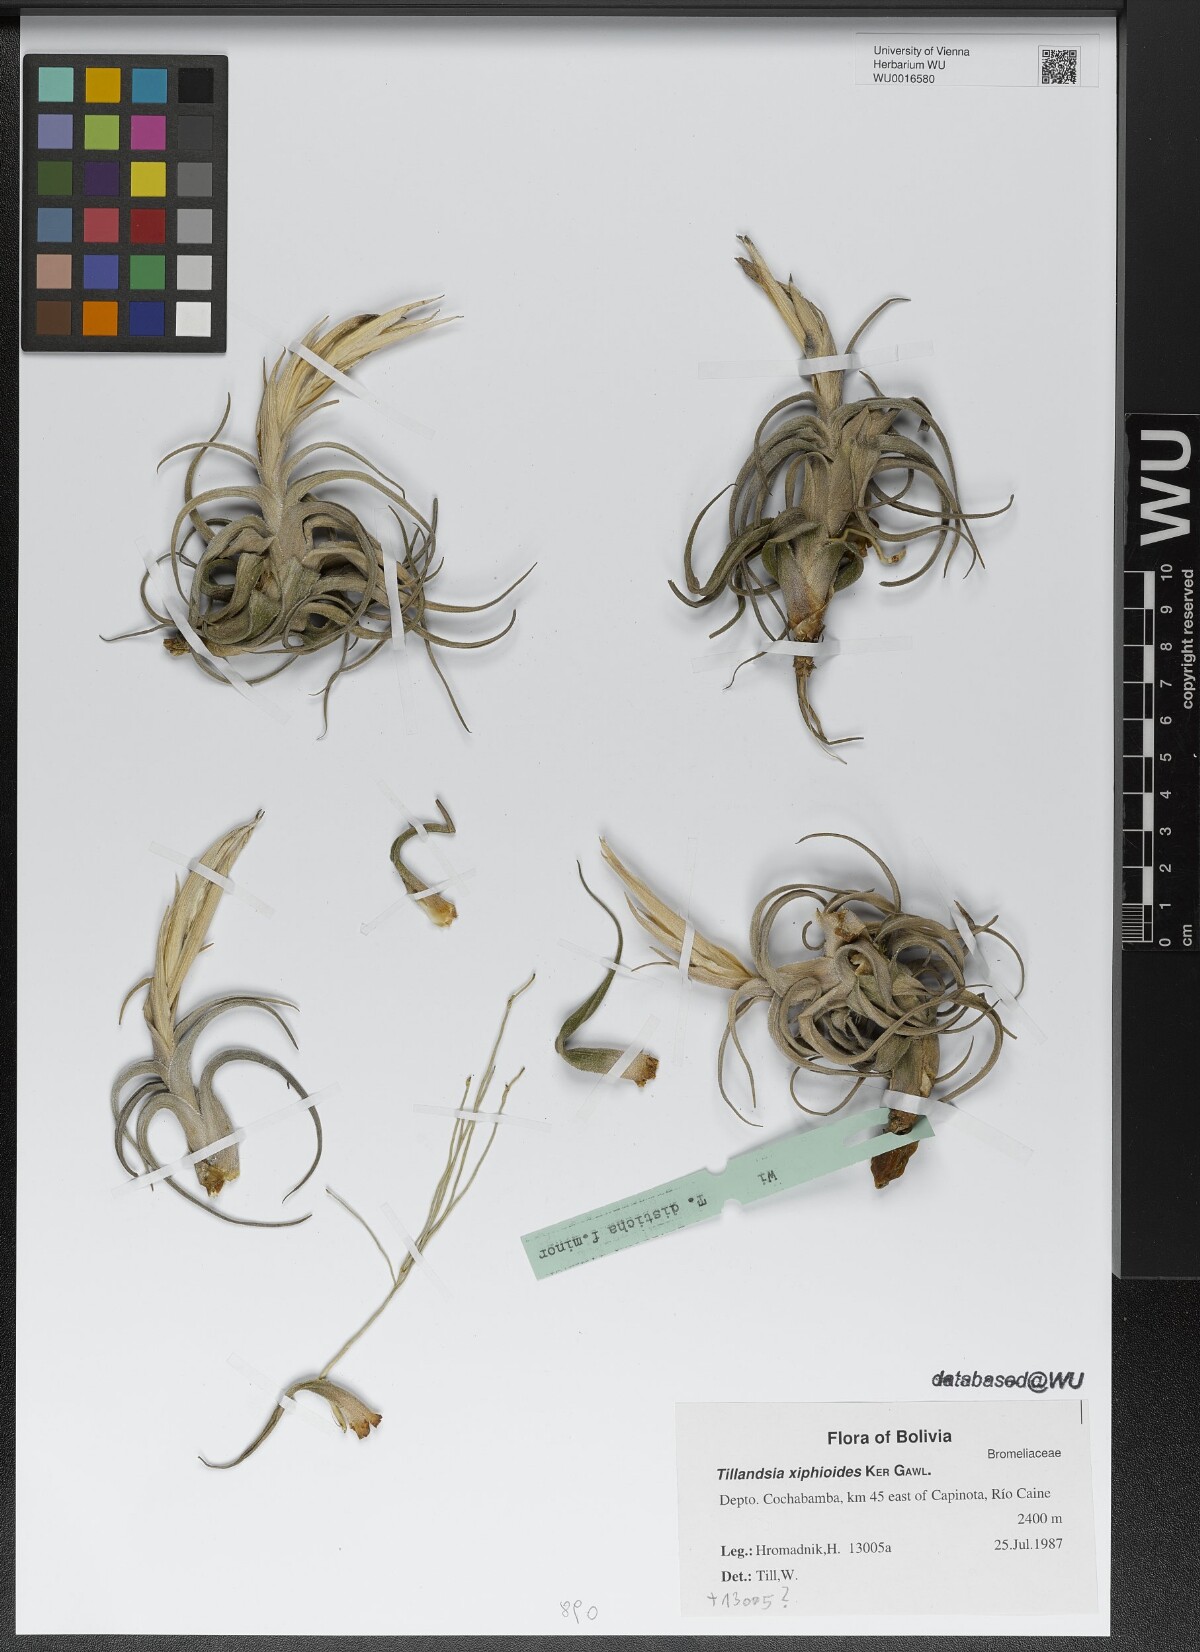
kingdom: Plantae
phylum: Tracheophyta
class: Liliopsida
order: Poales
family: Bromeliaceae
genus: Tillandsia
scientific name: Tillandsia xiphioides
